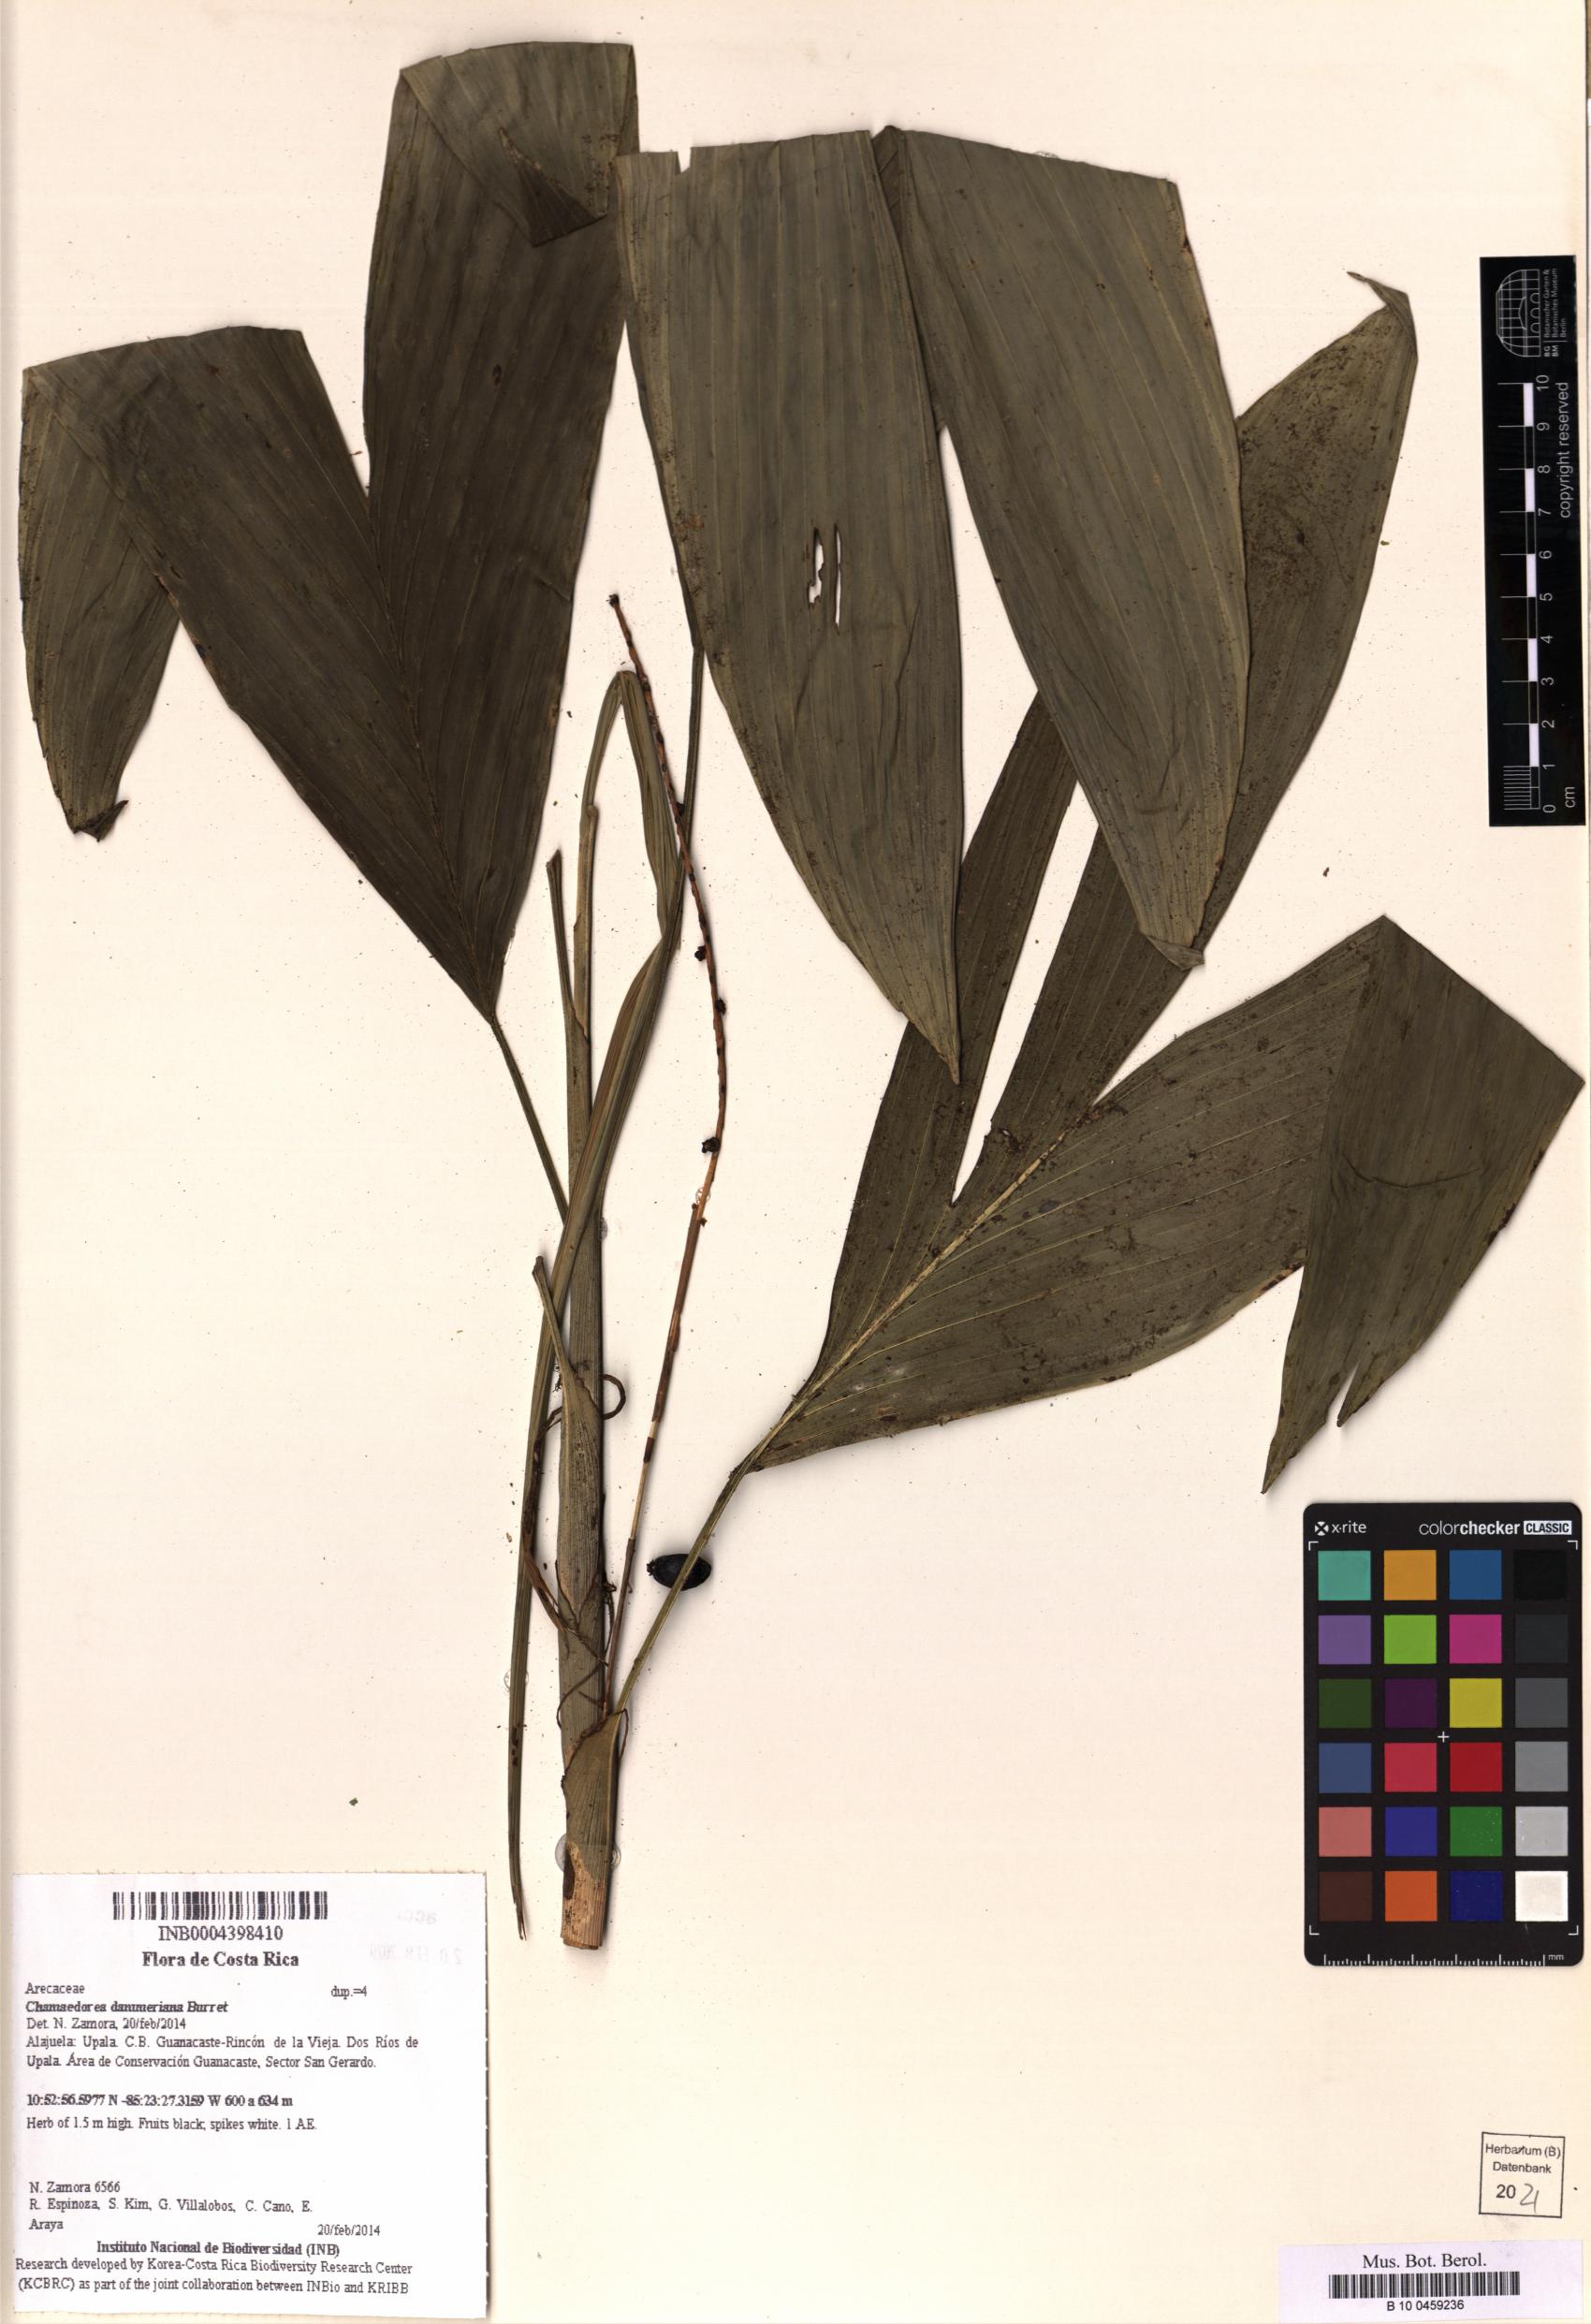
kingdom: Plantae
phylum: Tracheophyta
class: Liliopsida
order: Arecales
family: Arecaceae
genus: Chamaedorea
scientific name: Chamaedorea dammeriana
